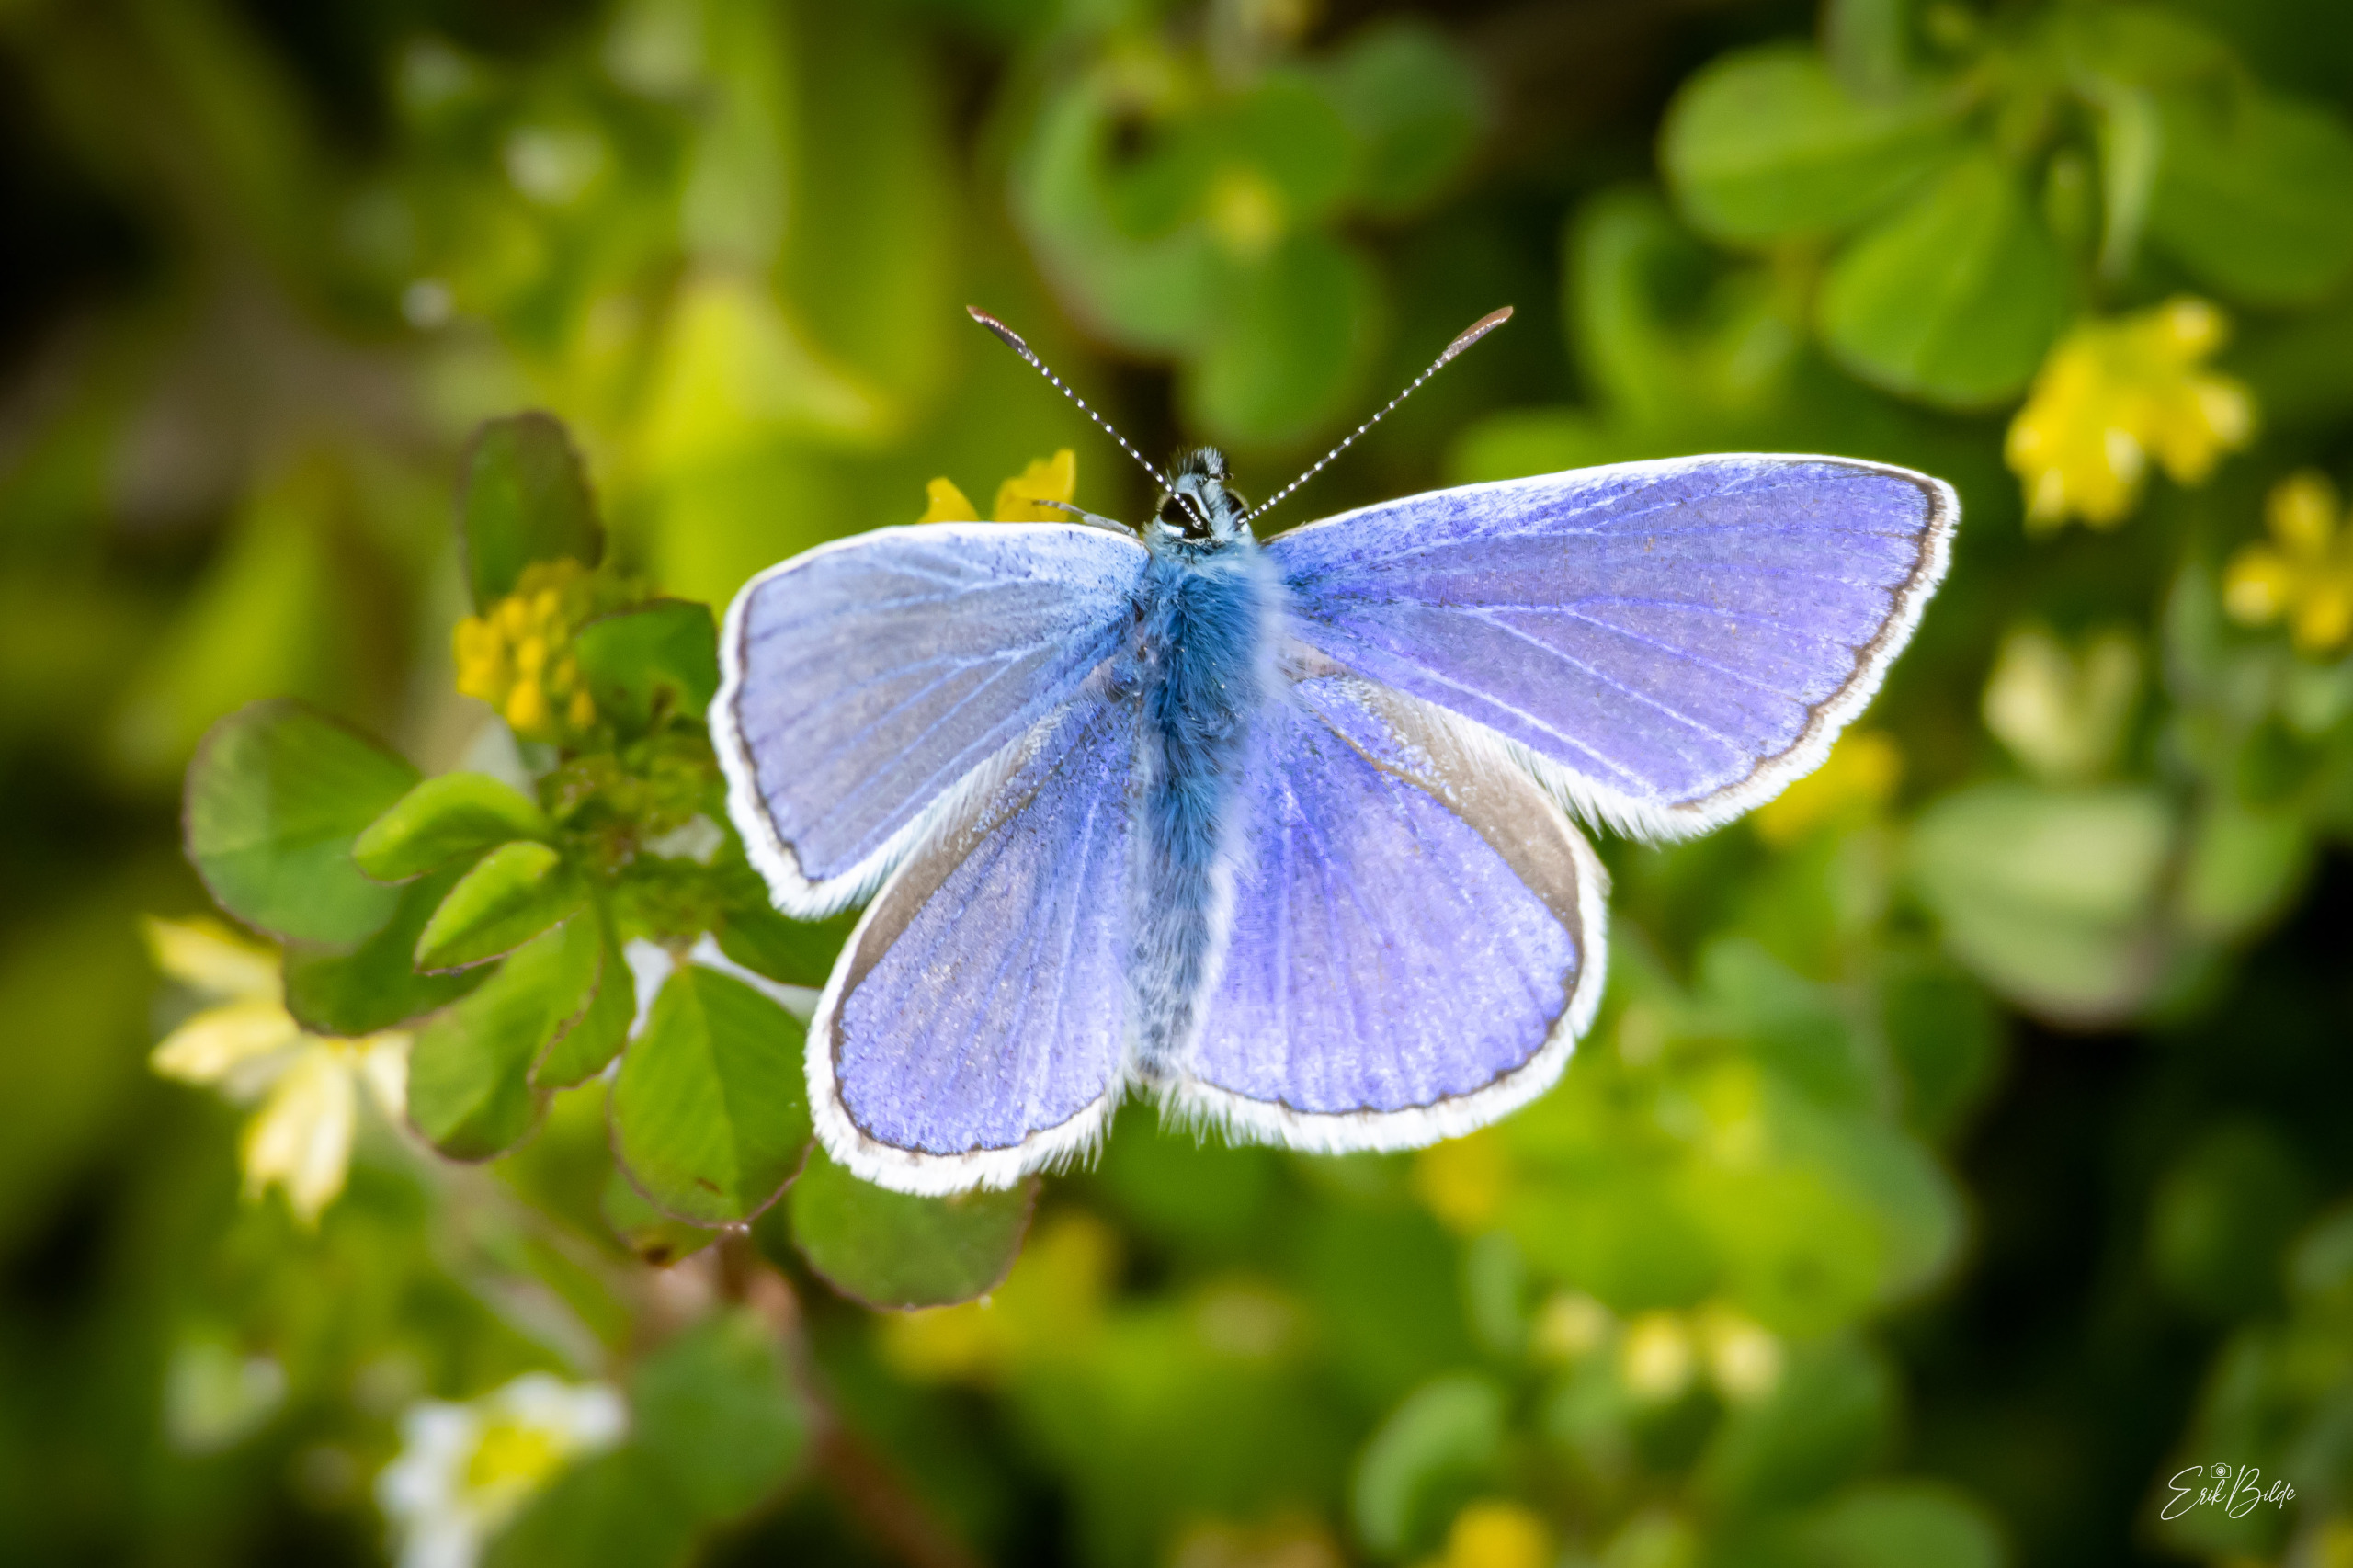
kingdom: Animalia
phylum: Arthropoda
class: Insecta
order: Lepidoptera
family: Lycaenidae
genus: Polyommatus
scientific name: Polyommatus icarus
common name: Almindelig blåfugl
